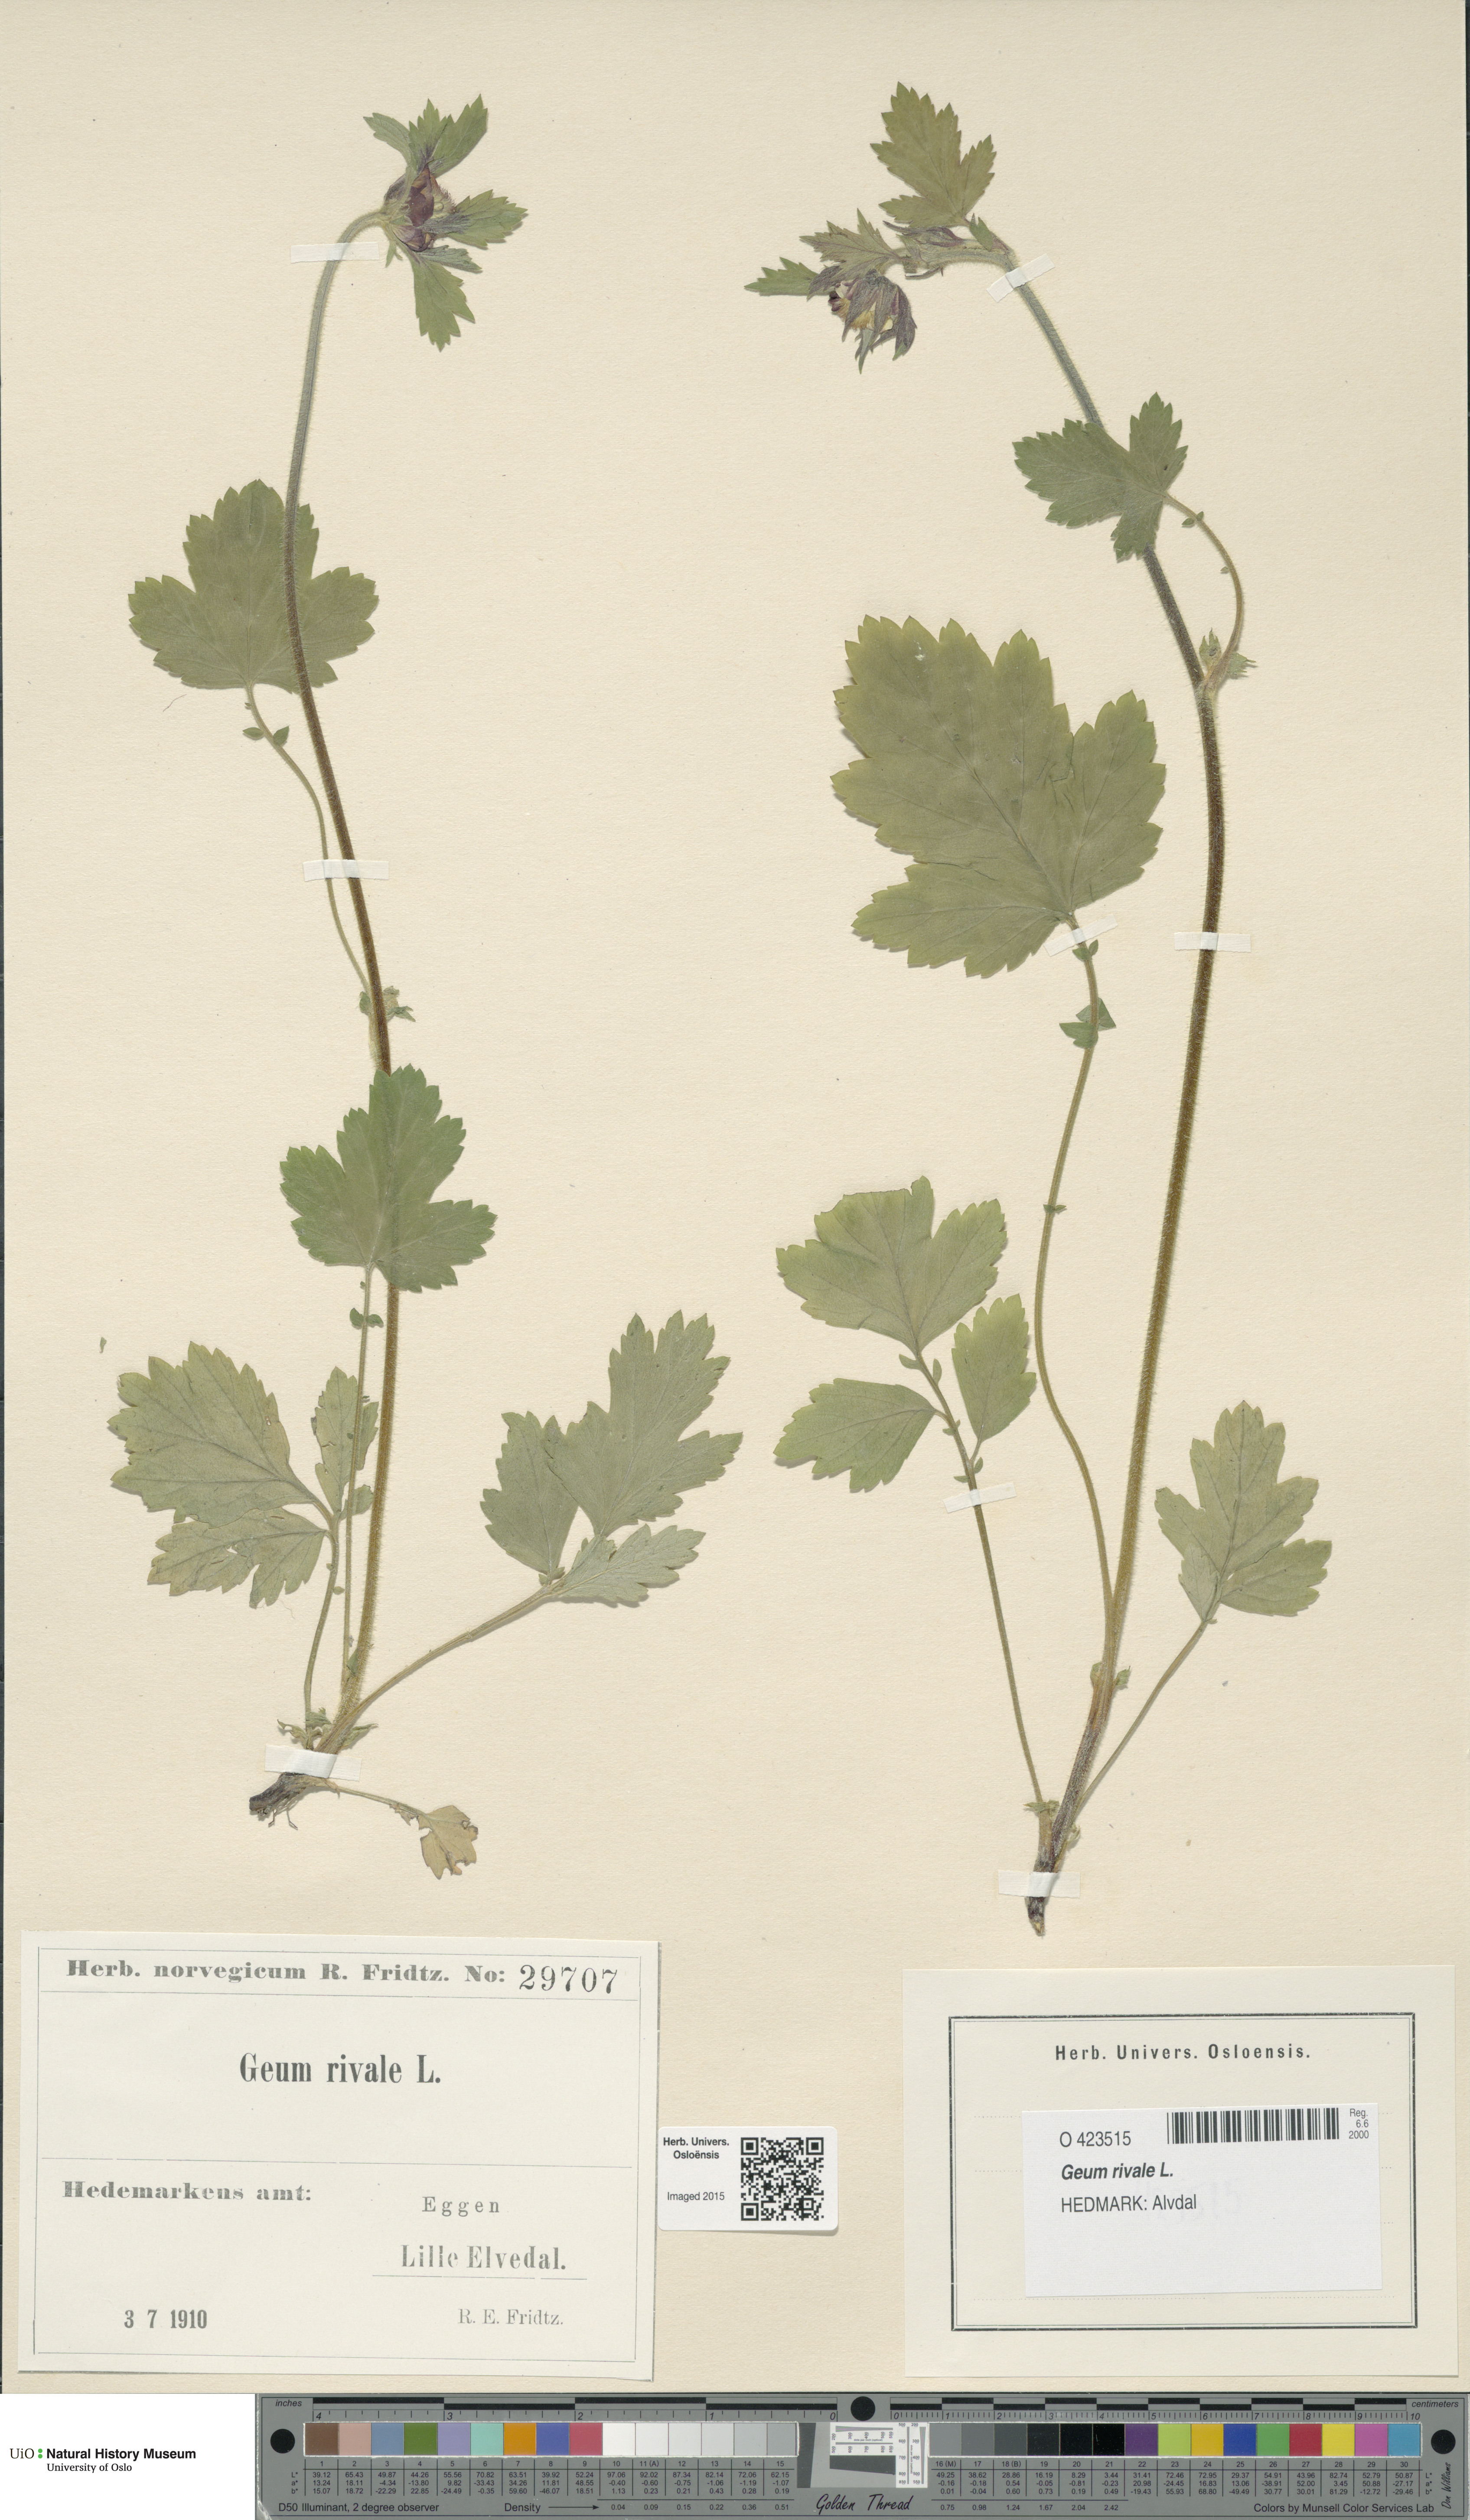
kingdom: Plantae
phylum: Tracheophyta
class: Magnoliopsida
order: Rosales
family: Rosaceae
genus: Geum
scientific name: Geum rivale
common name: Water avens
